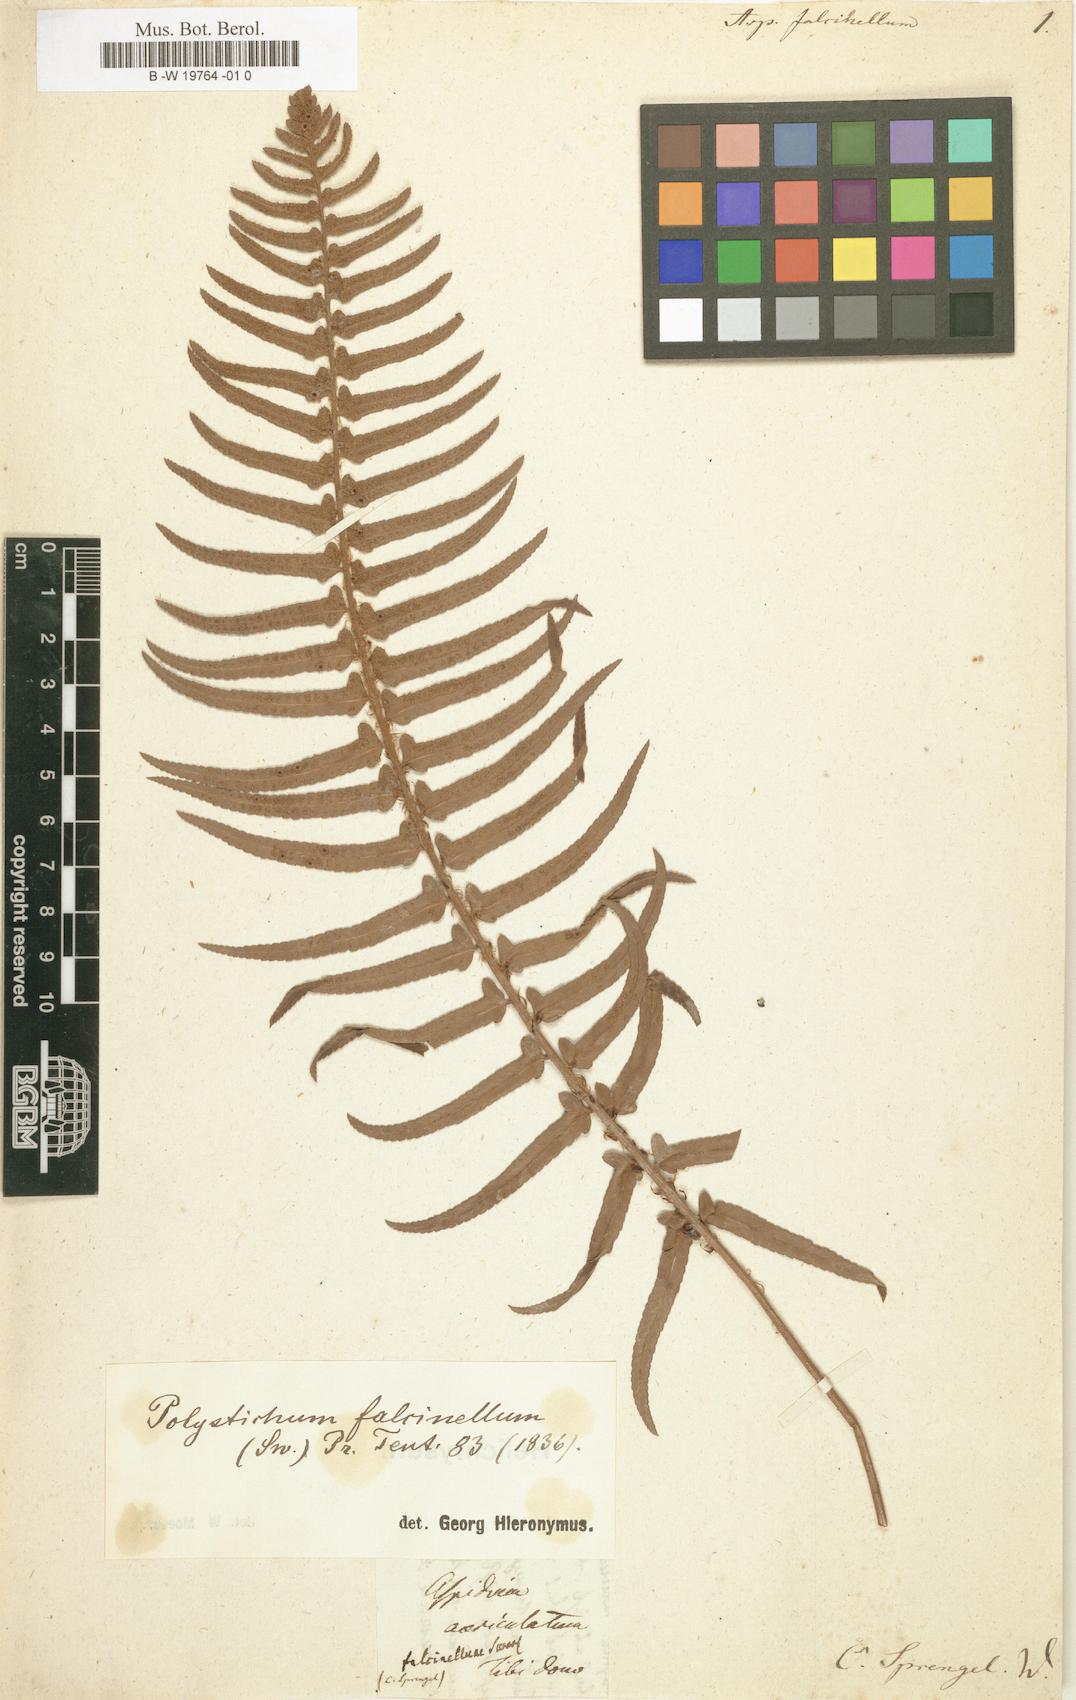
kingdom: Plantae
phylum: Tracheophyta
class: Polypodiopsida
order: Polypodiales
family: Dryopteridaceae
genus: Polystichum
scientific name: Polystichum falcinellum
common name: Madeira sword-fern
